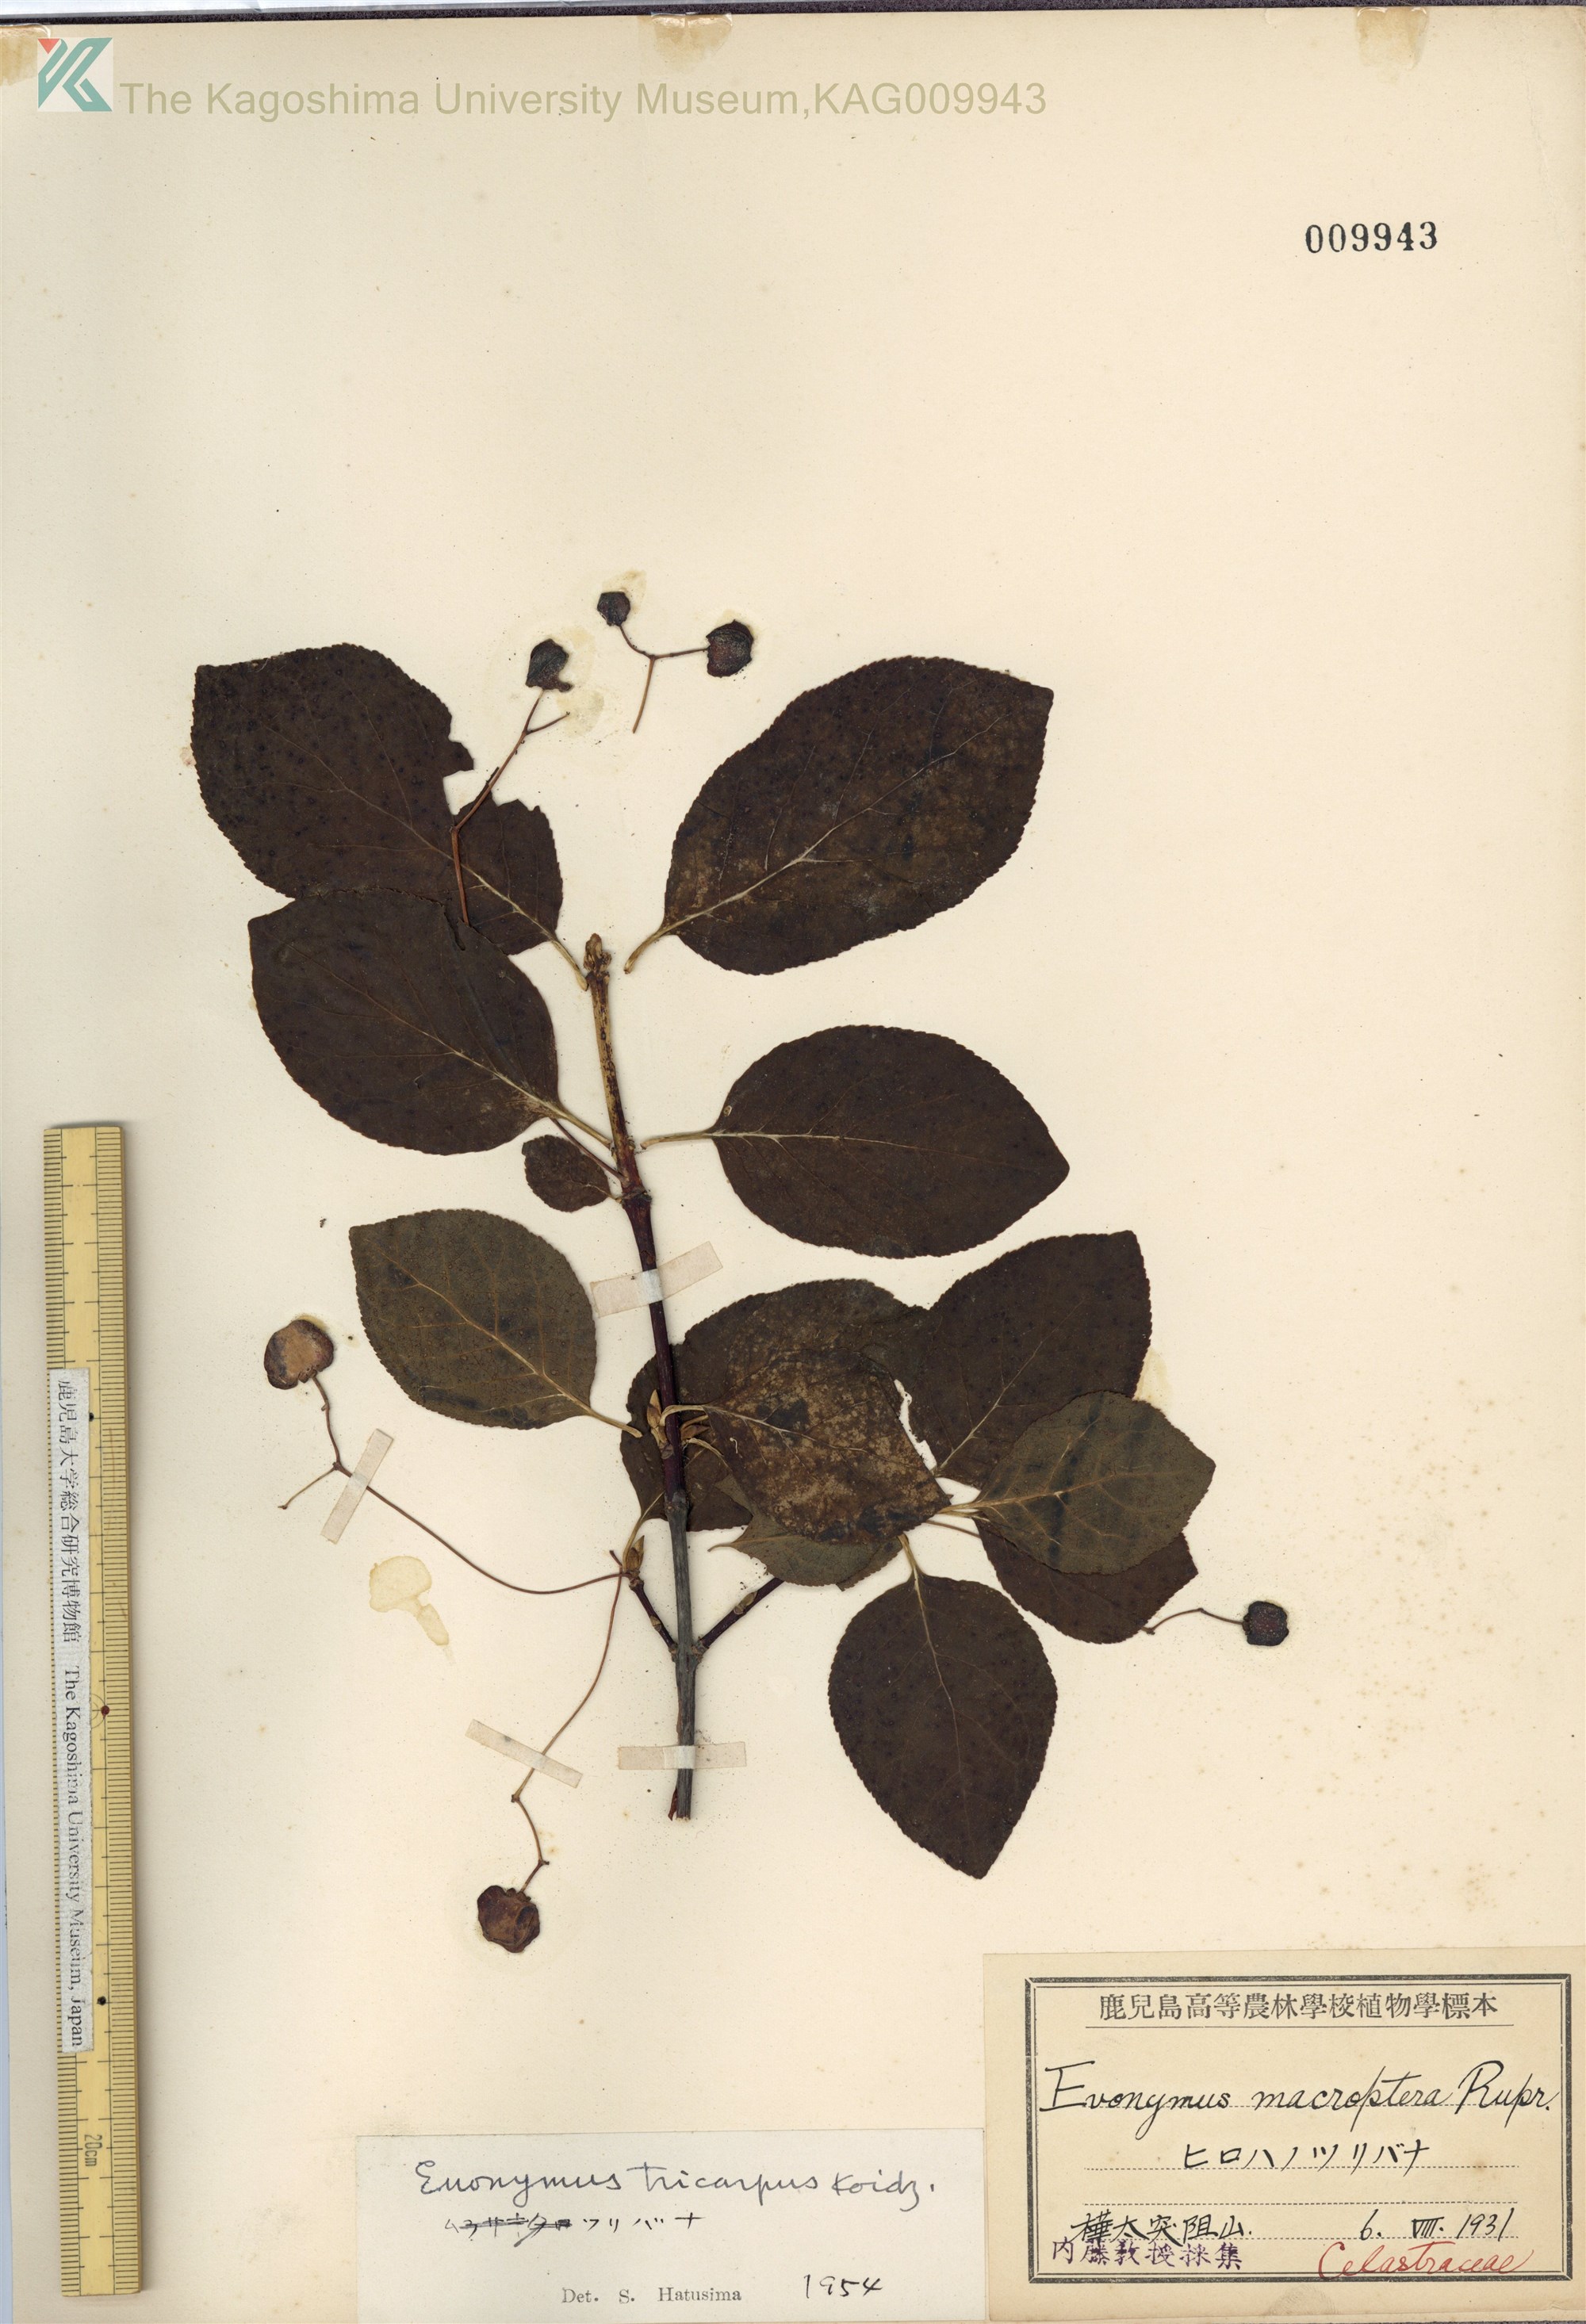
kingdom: Plantae
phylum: Tracheophyta
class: Magnoliopsida
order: Celastrales
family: Celastraceae
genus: Euonymus
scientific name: Euonymus sachalinensis
